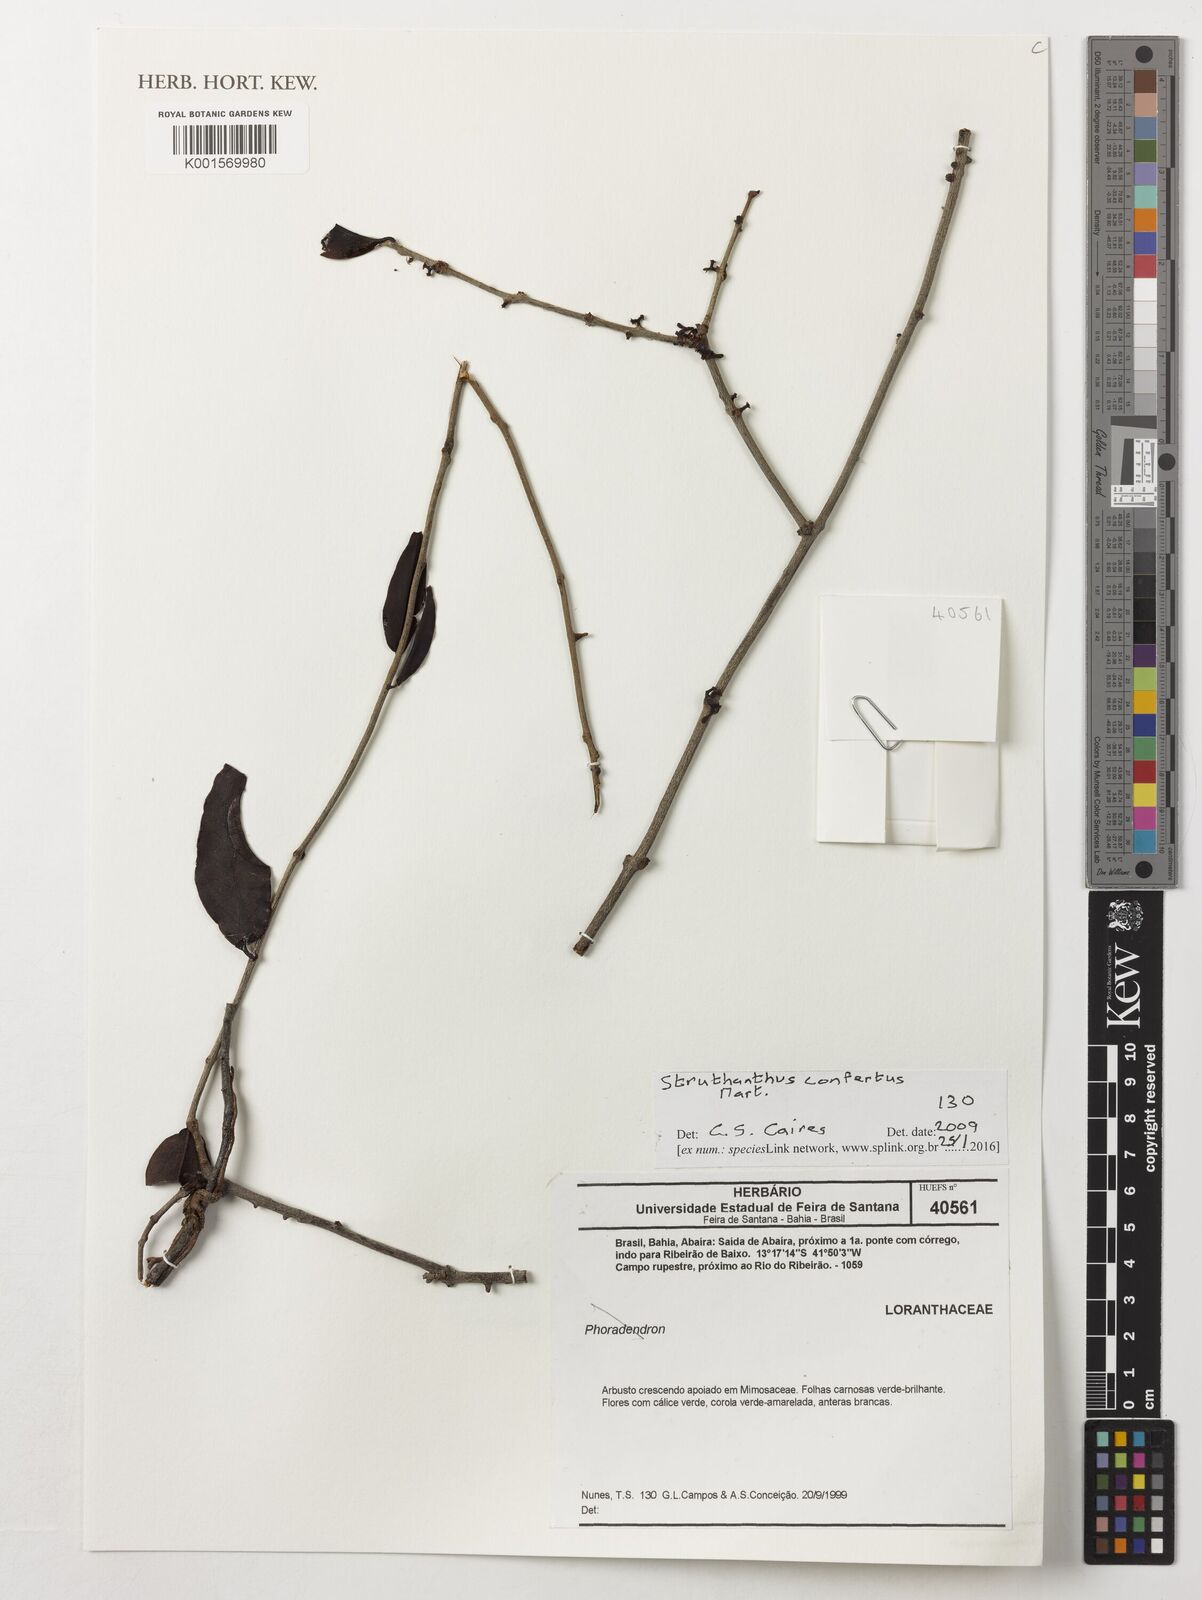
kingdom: Plantae
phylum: Tracheophyta
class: Magnoliopsida
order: Santalales
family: Loranthaceae
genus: Struthanthus
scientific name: Struthanthus confertus
